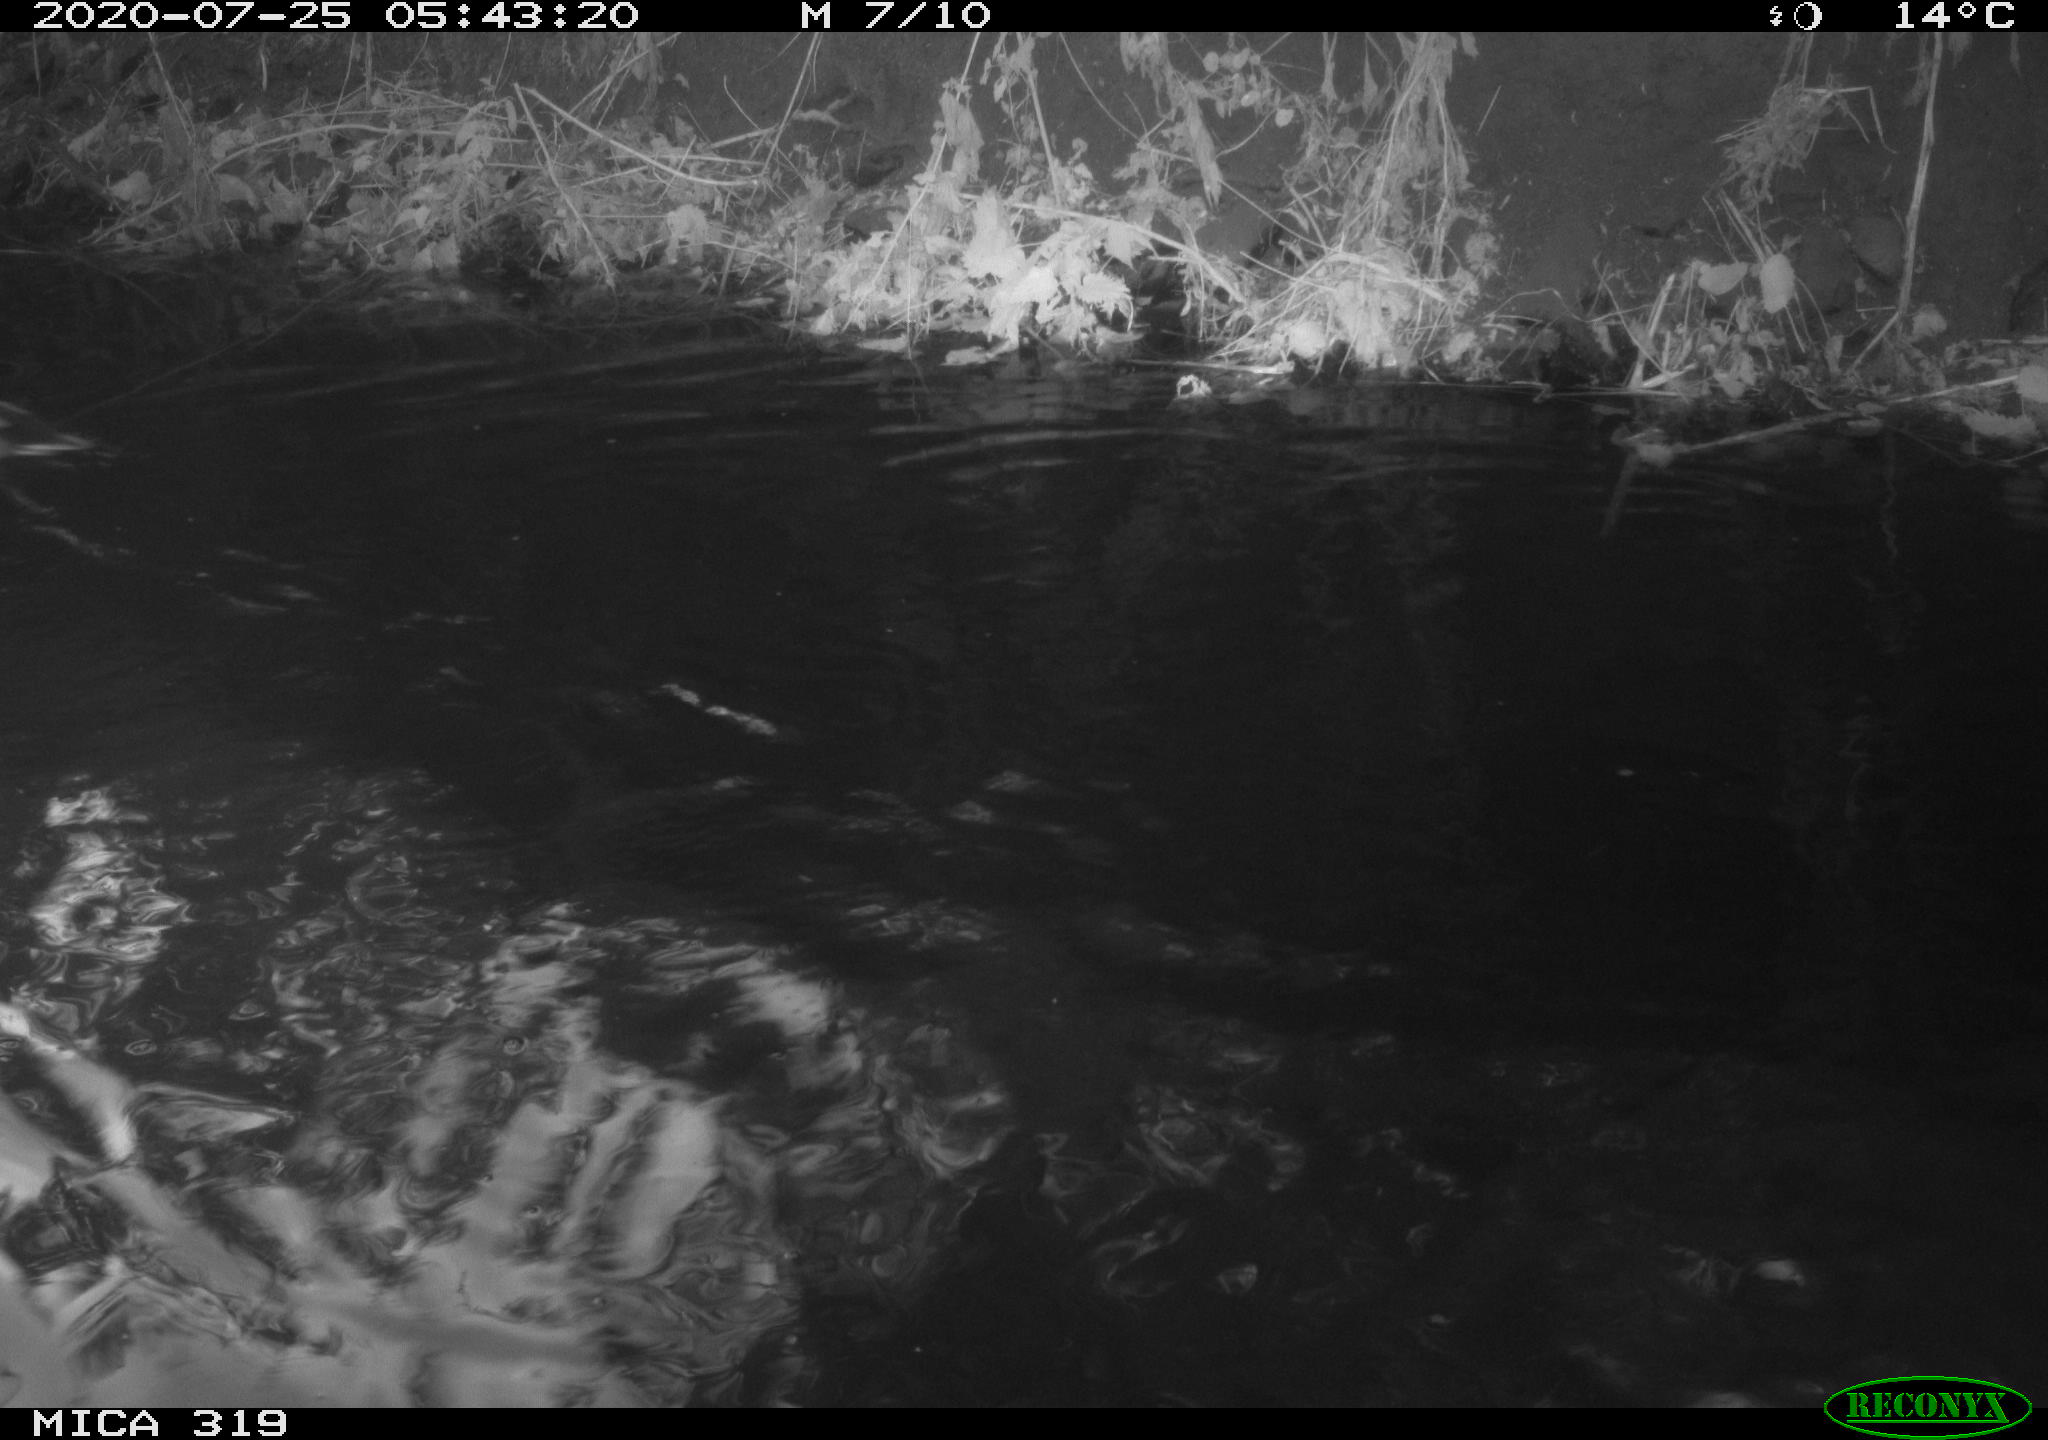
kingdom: Animalia
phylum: Chordata
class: Aves
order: Anseriformes
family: Anatidae
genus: Anas
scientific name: Anas platyrhynchos
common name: Mallard
